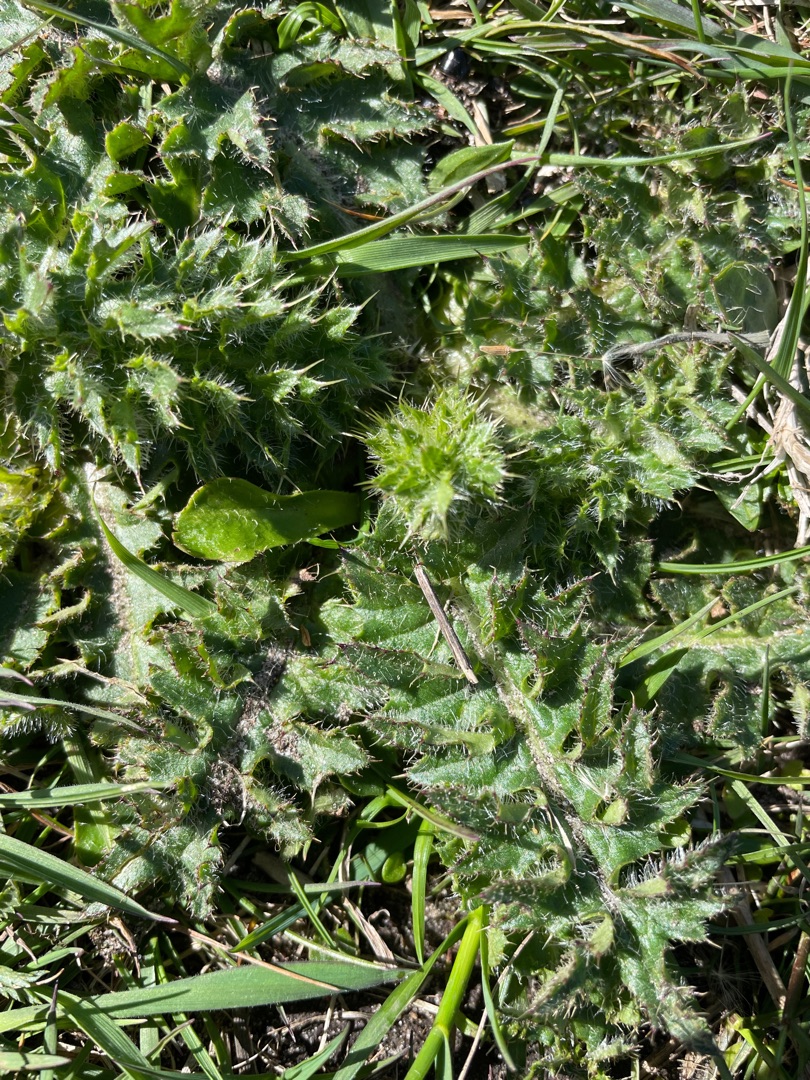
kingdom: Plantae
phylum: Tracheophyta
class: Magnoliopsida
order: Asterales
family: Asteraceae
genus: Cirsium
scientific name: Cirsium acaule
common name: Lav tidsel
